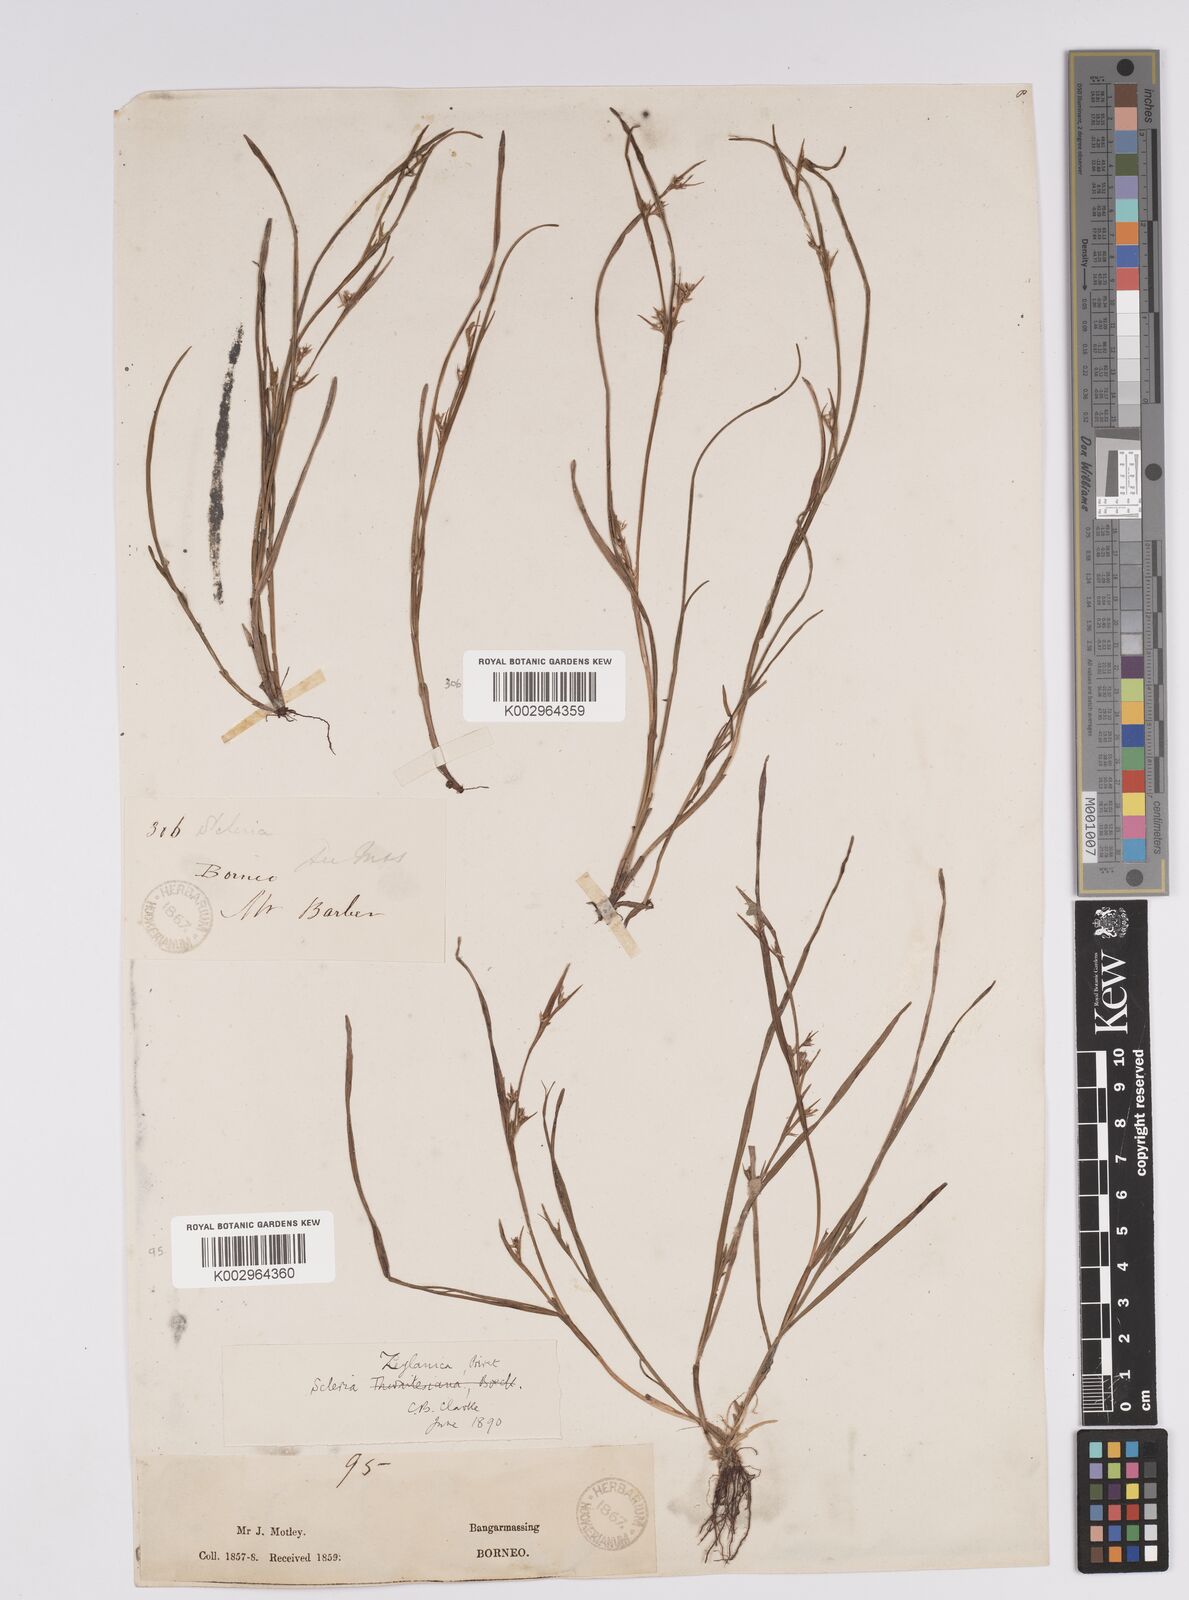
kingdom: Plantae
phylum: Tracheophyta
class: Liliopsida
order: Poales
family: Cyperaceae
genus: Scleria
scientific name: Scleria levis
